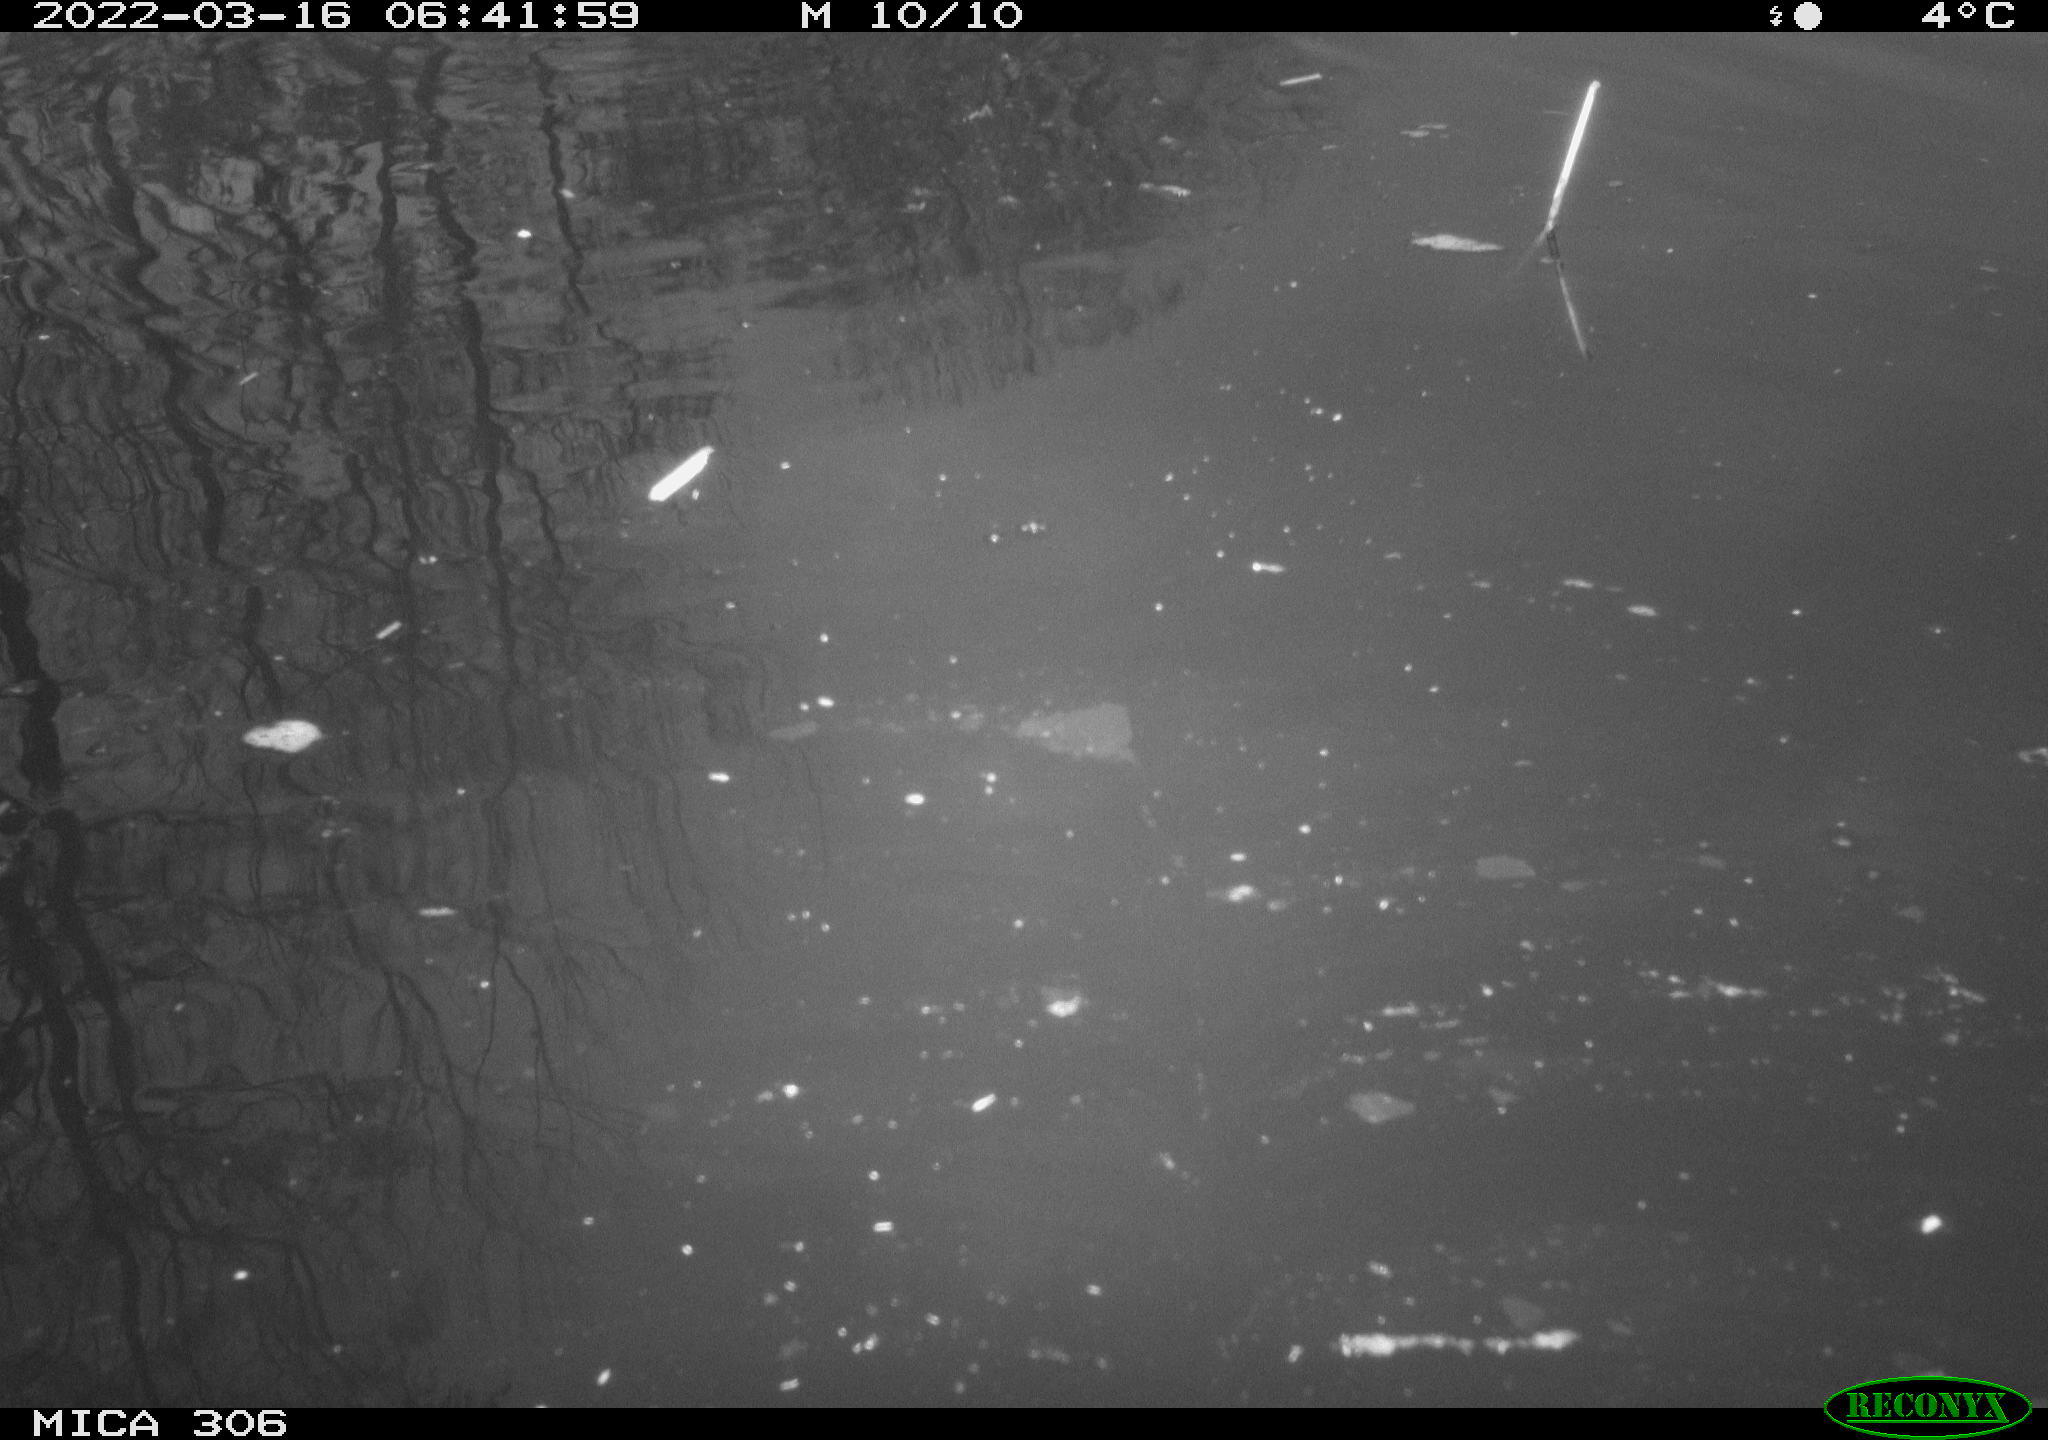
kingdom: Animalia
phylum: Chordata
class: Aves
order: Gruiformes
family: Rallidae
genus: Gallinula
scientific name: Gallinula chloropus
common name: Common moorhen
